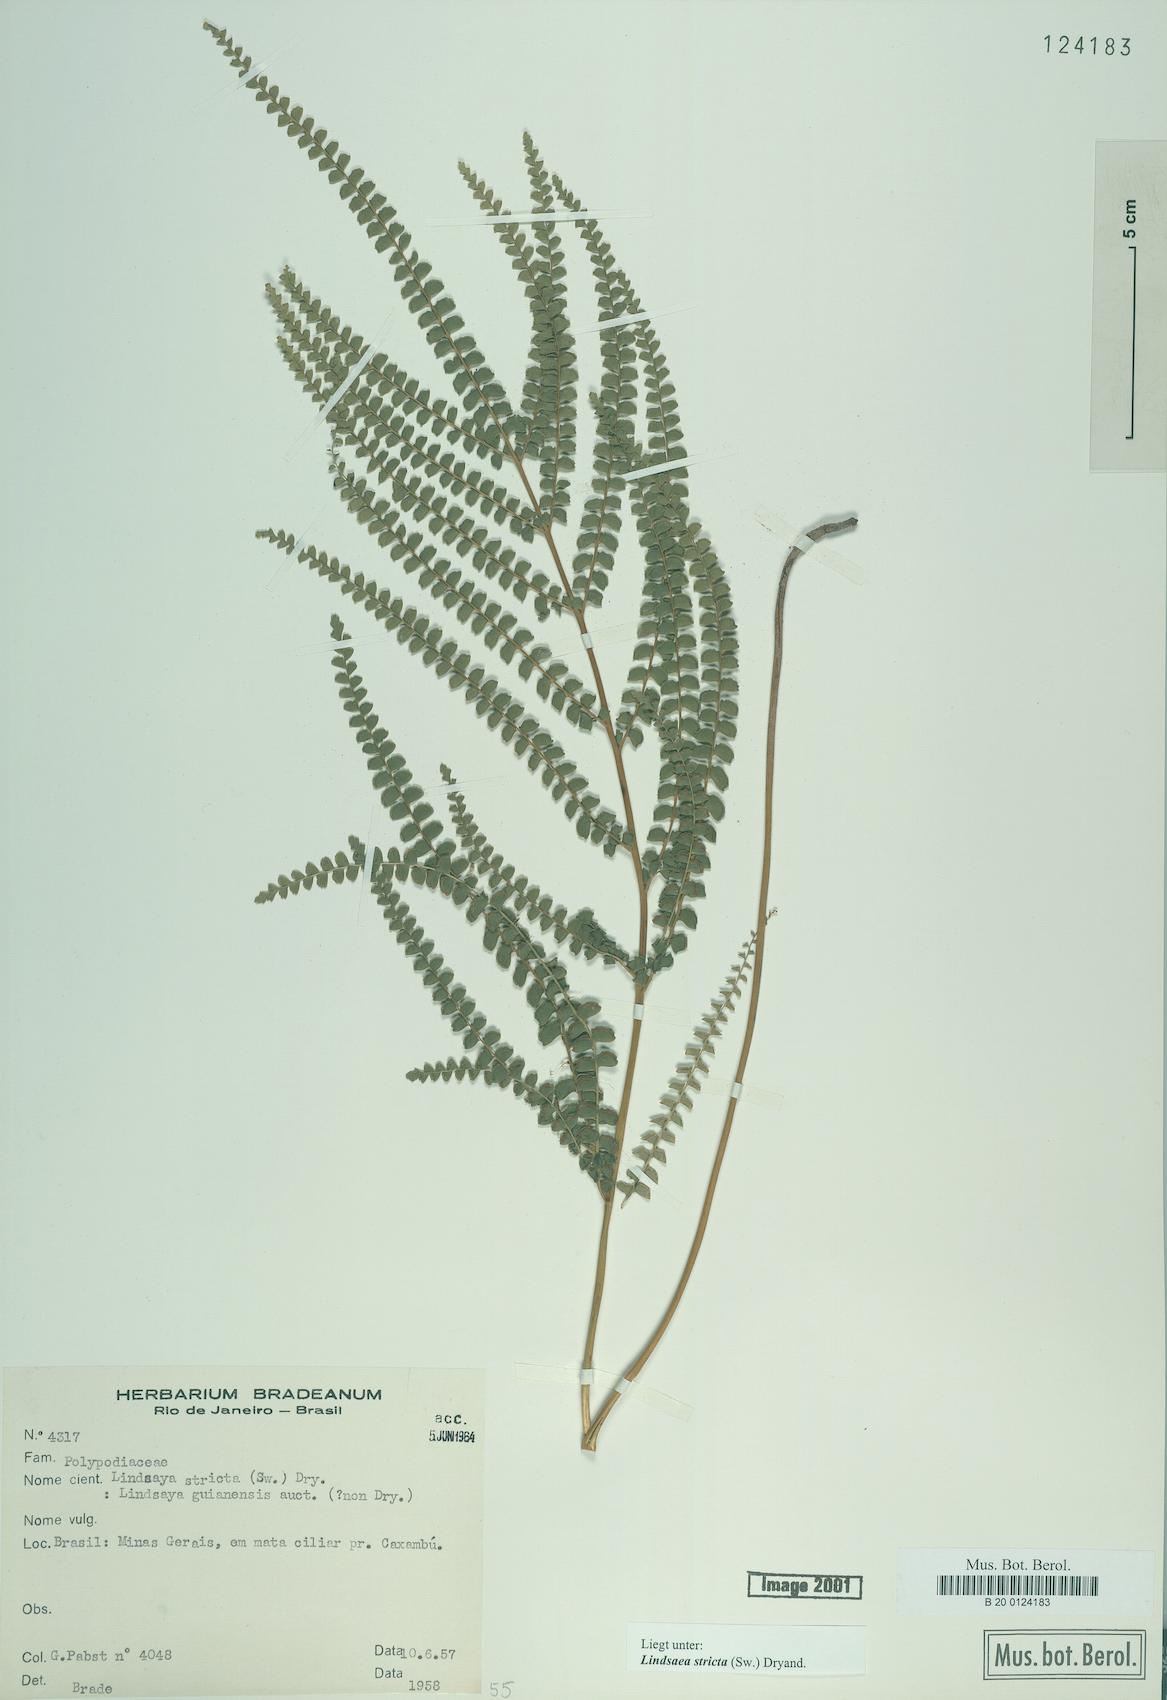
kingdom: Plantae
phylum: Tracheophyta
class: Polypodiopsida
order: Polypodiales
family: Lindsaeaceae
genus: Lindsaea
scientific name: Lindsaea stricta
